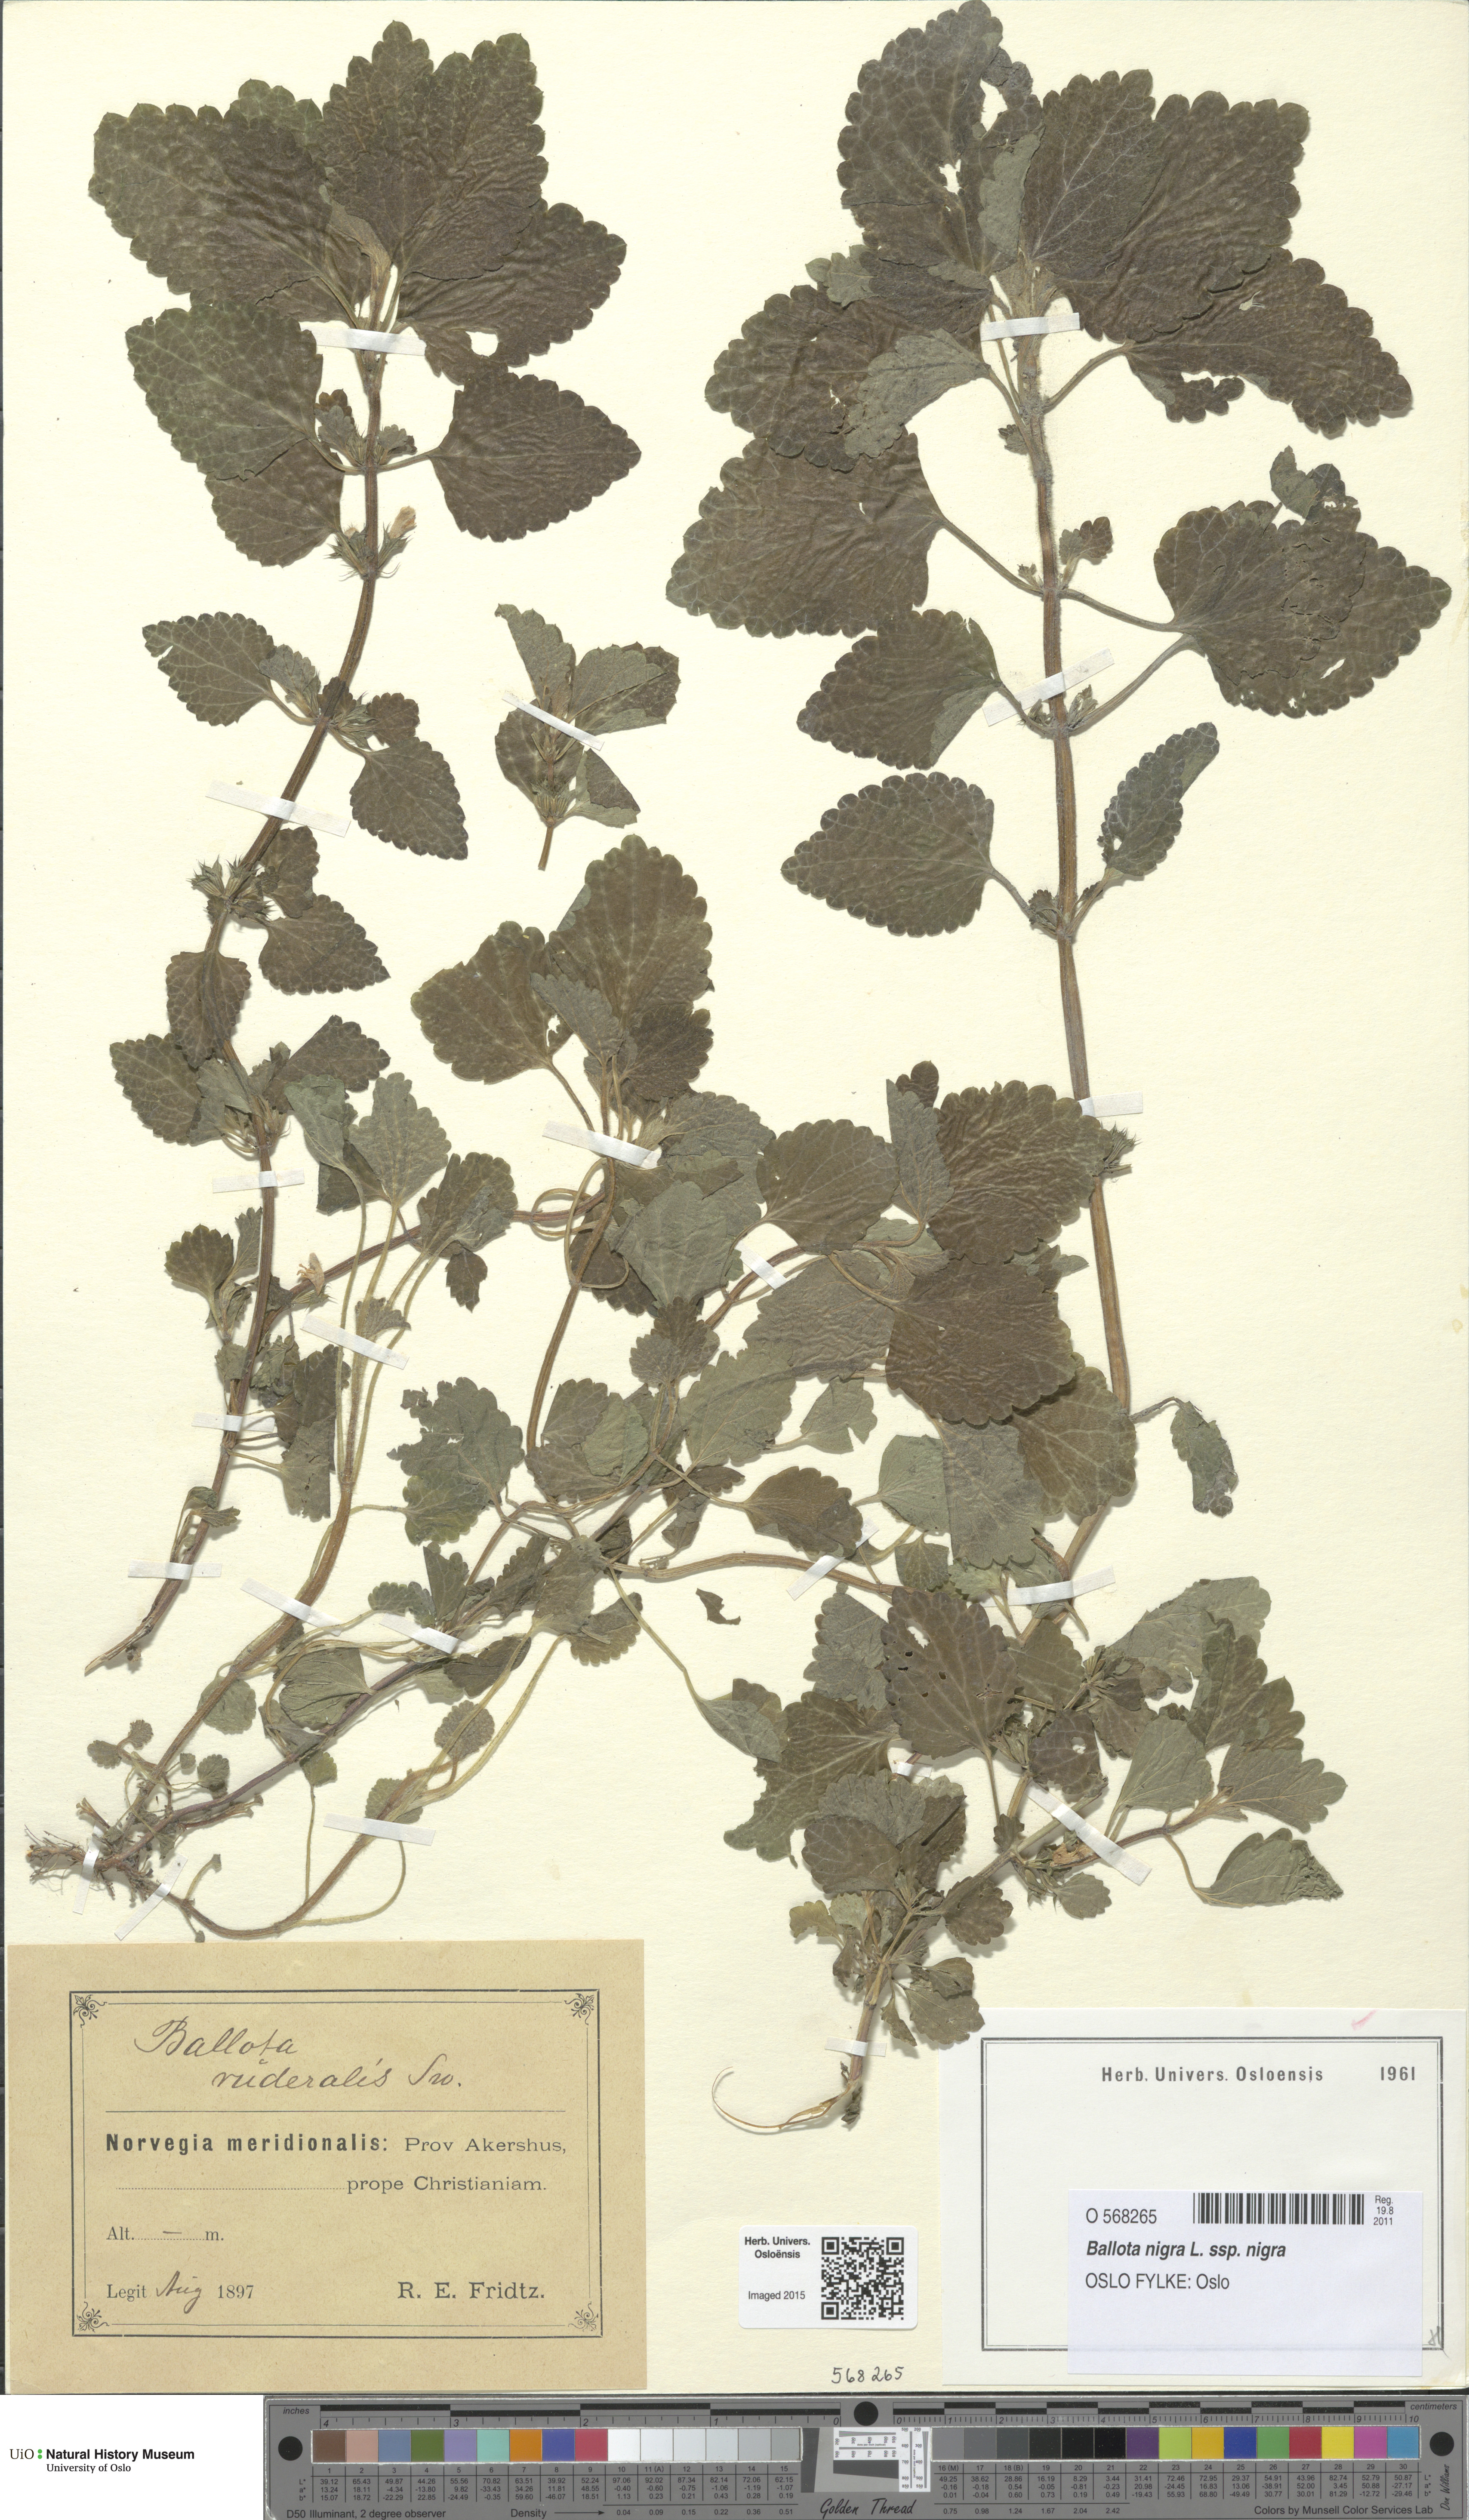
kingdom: Plantae
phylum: Tracheophyta
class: Magnoliopsida
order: Lamiales
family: Lamiaceae
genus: Ballota
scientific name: Ballota nigra
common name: Black horehound
